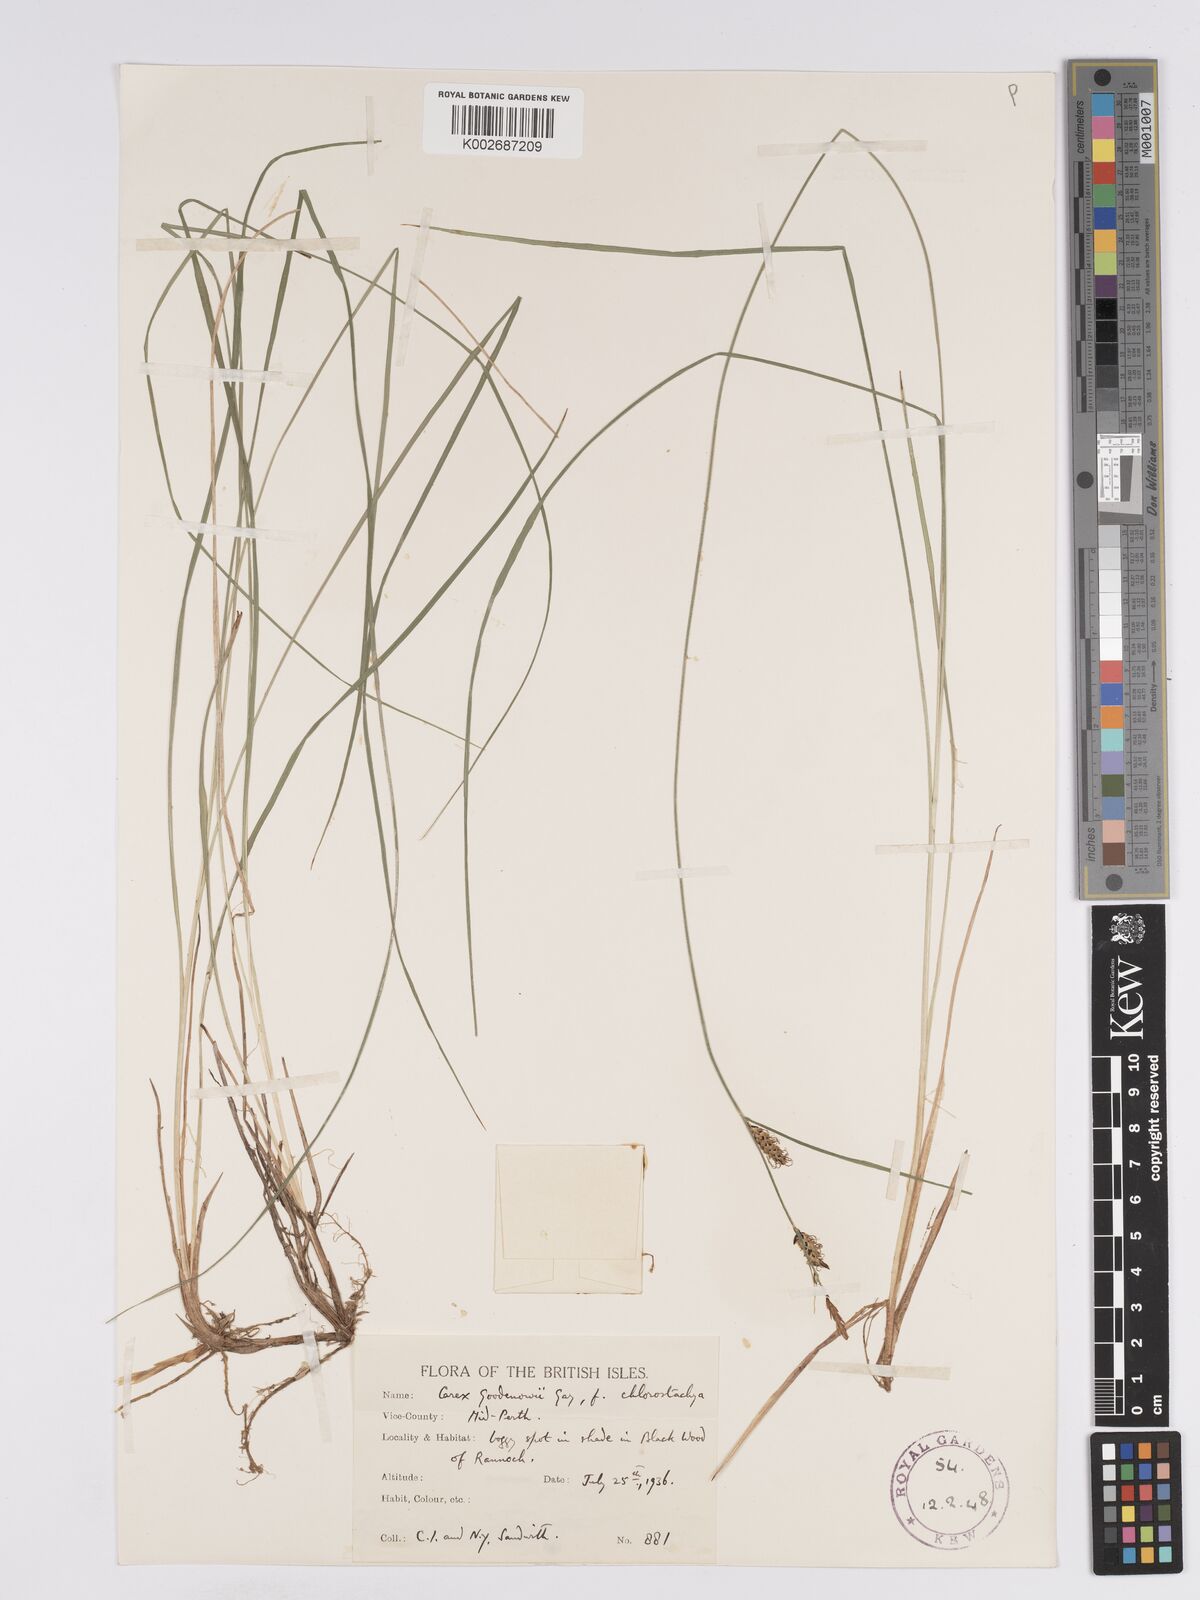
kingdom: Plantae
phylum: Tracheophyta
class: Liliopsida
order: Poales
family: Cyperaceae
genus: Carex
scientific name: Carex nigra
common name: Common sedge
